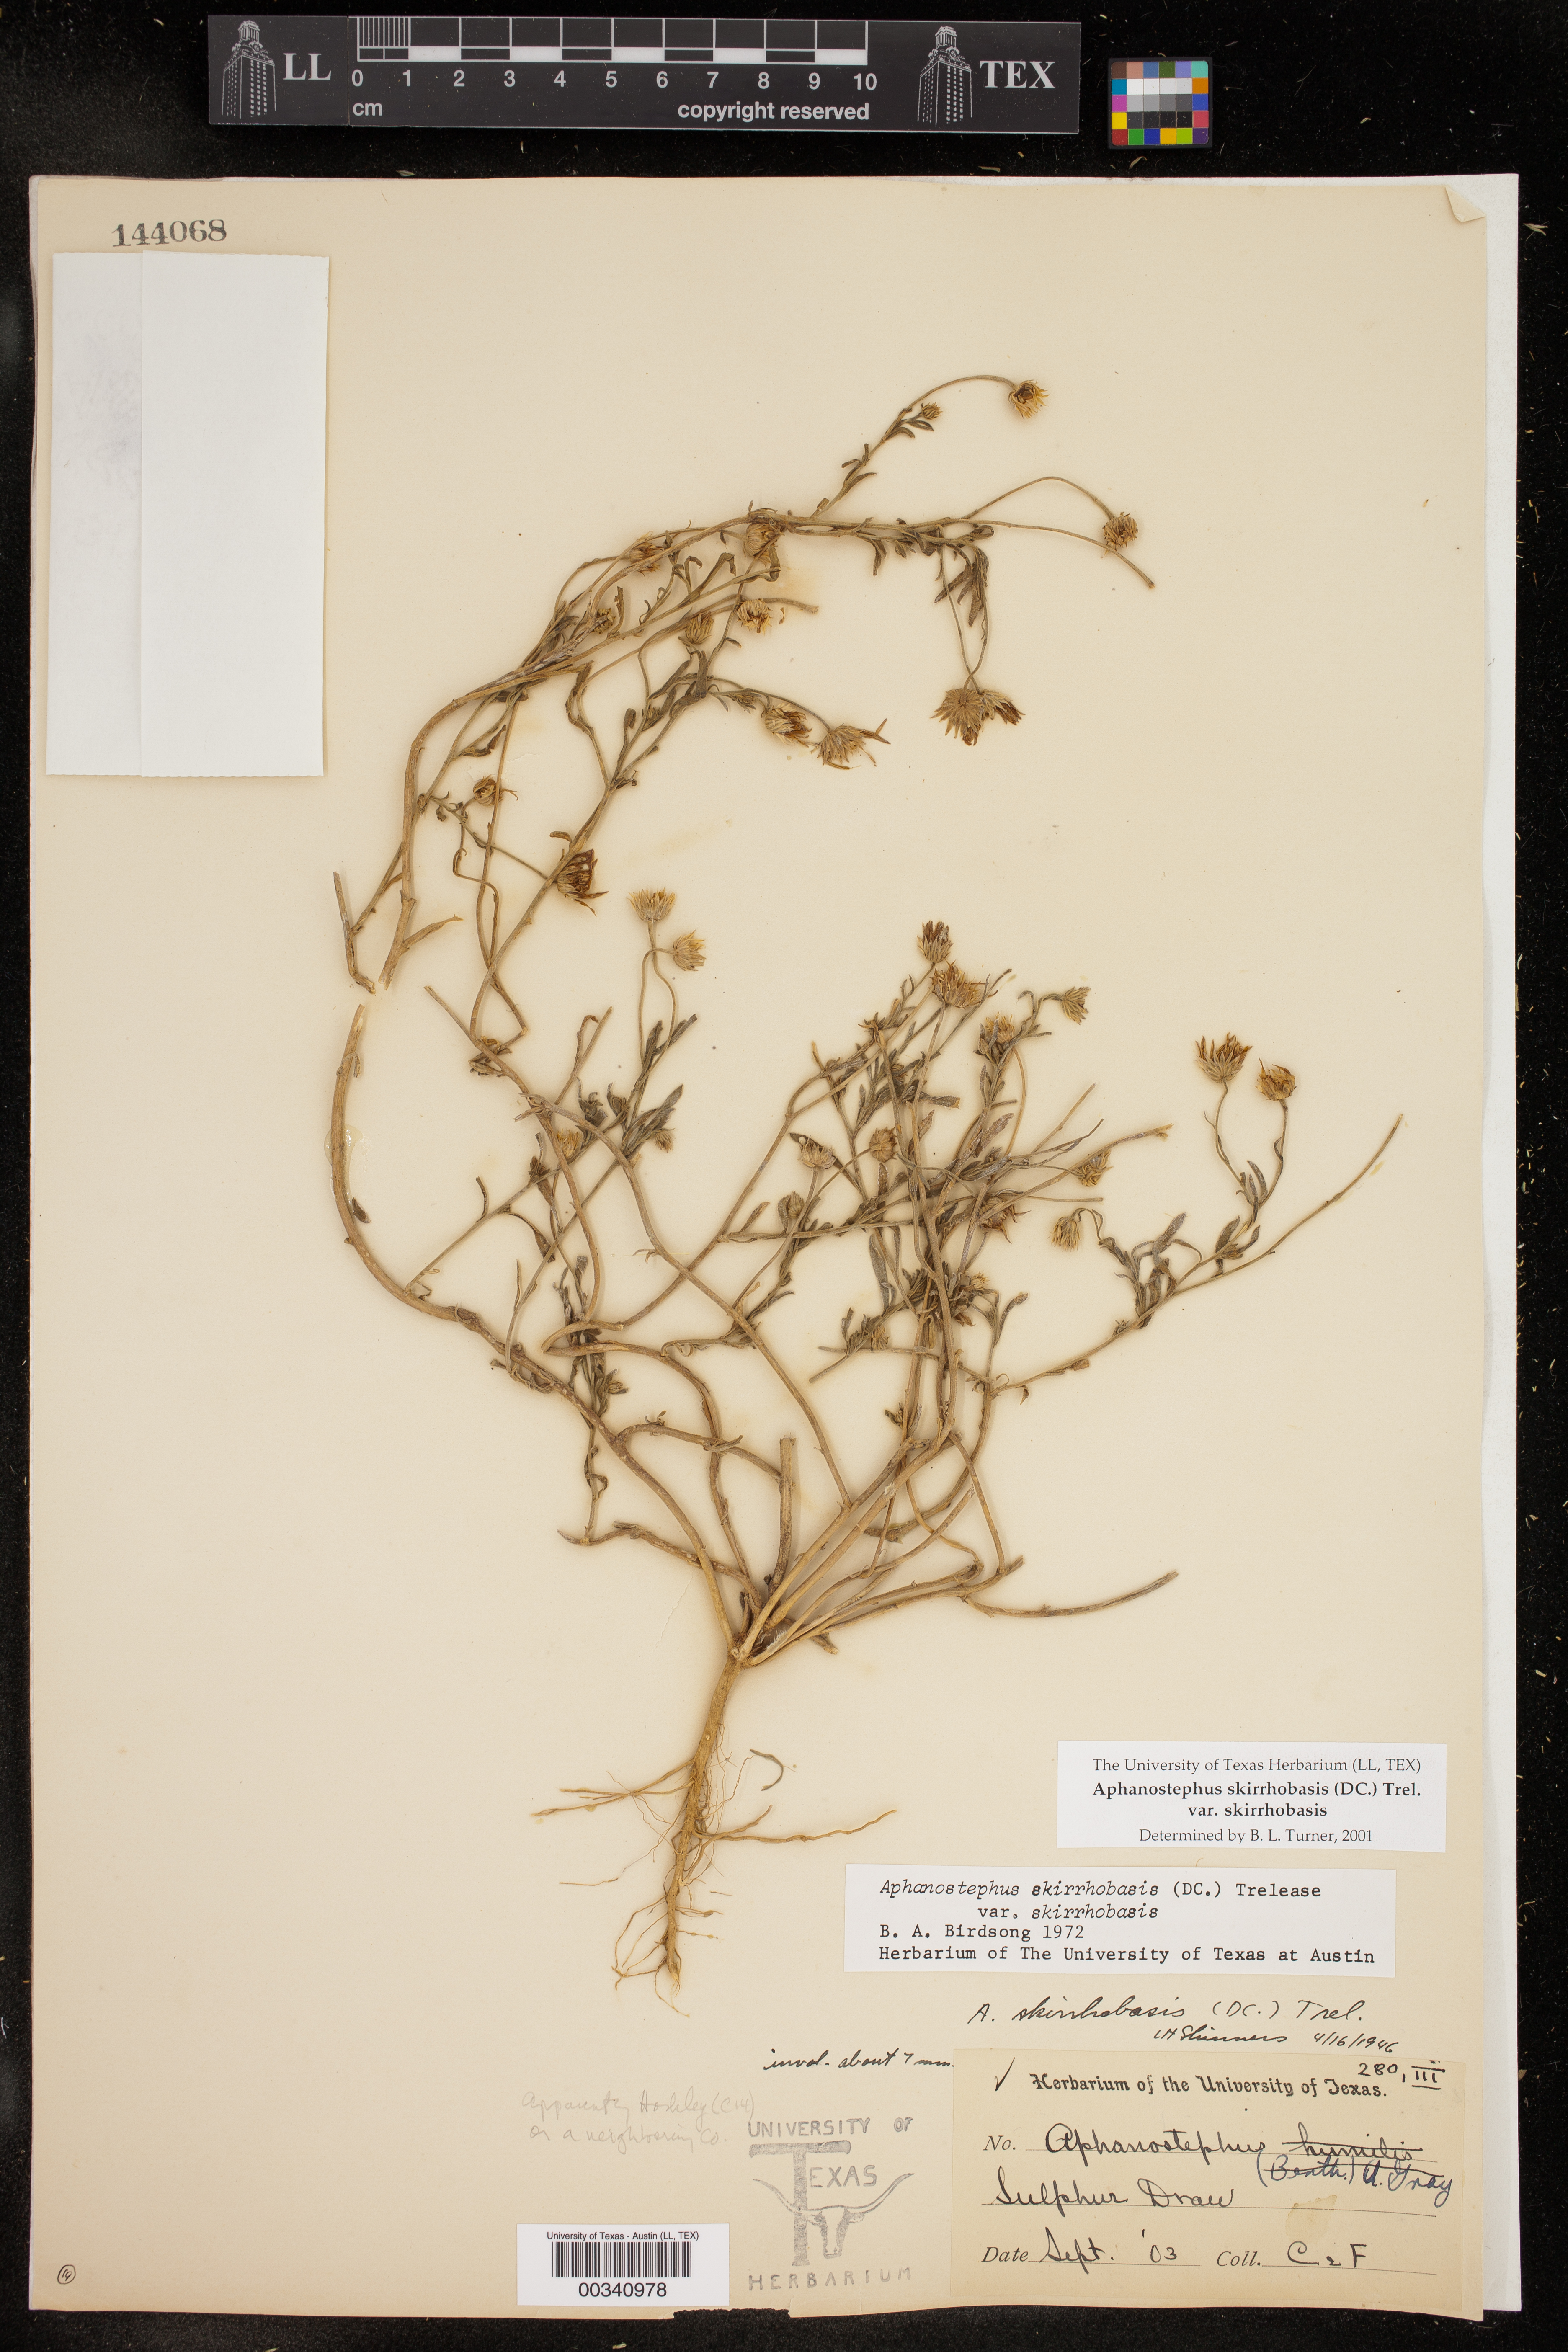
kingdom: Plantae
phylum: Tracheophyta
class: Magnoliopsida
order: Asterales
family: Asteraceae
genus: Aphanostephus
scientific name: Aphanostephus skirrhobasis
